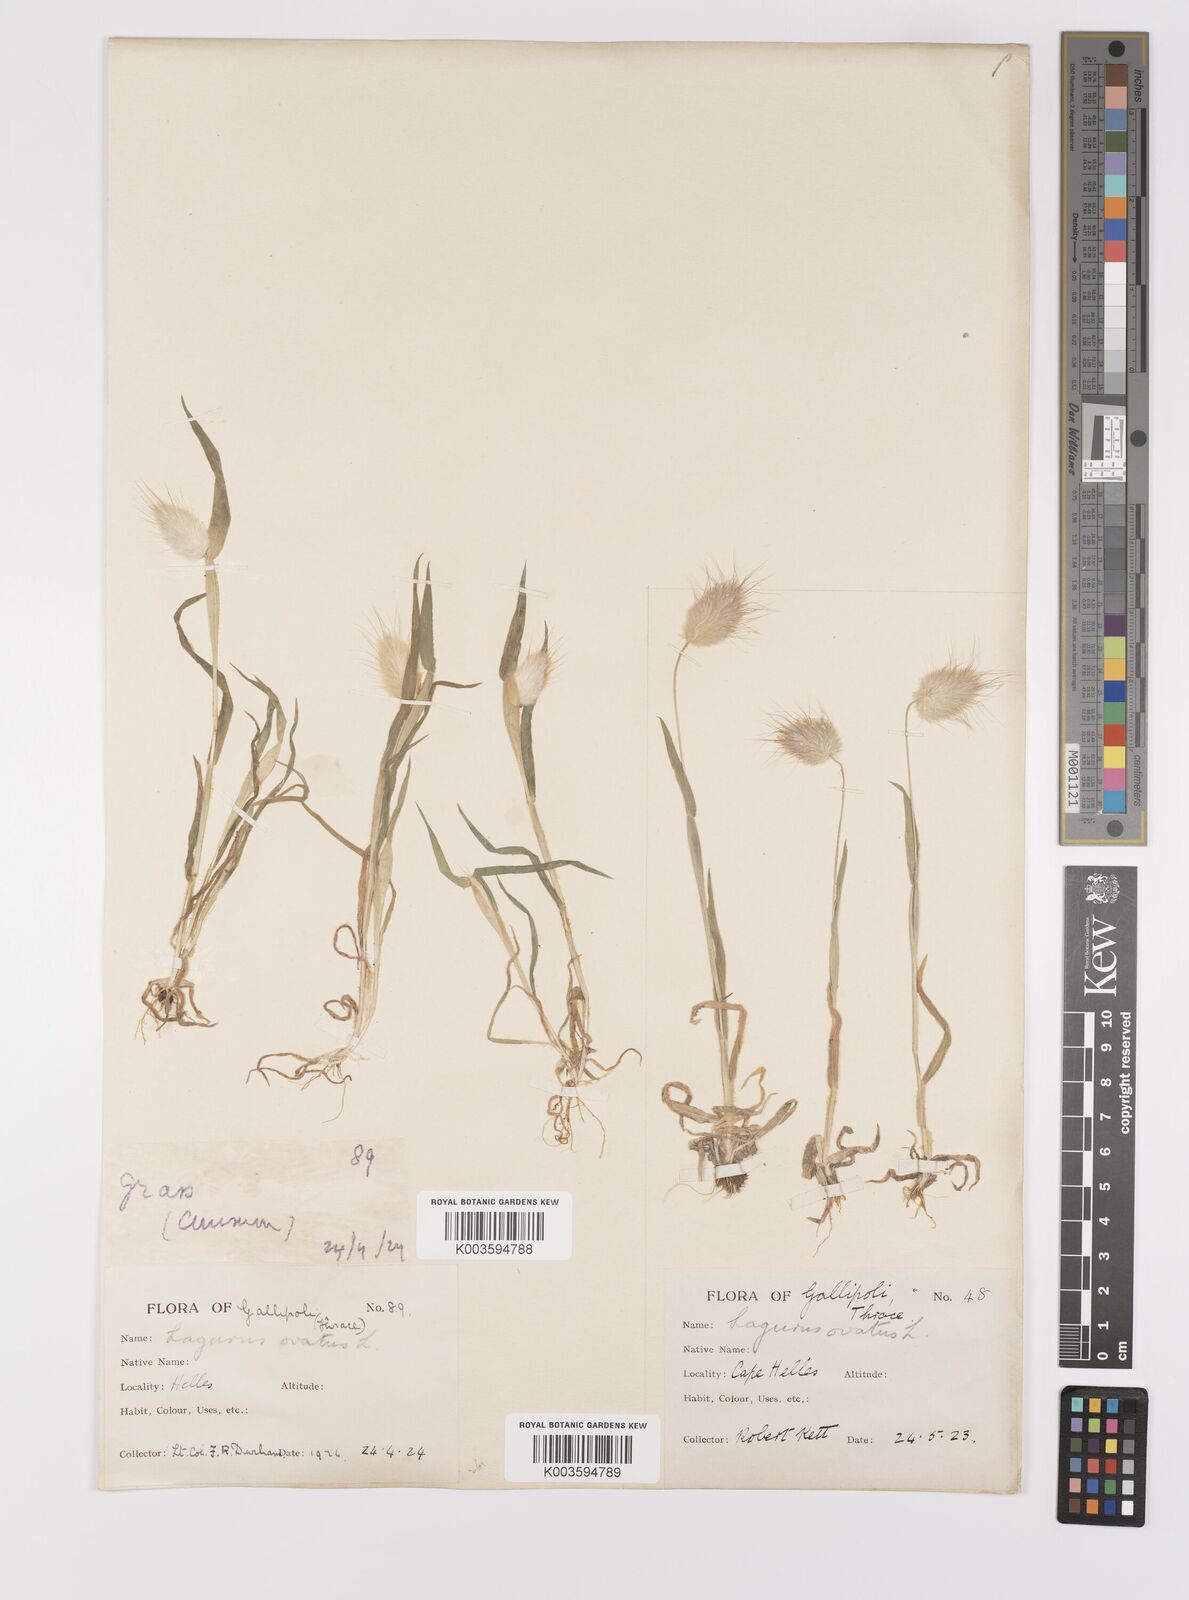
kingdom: Plantae
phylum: Tracheophyta
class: Liliopsida
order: Poales
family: Poaceae
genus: Lagurus
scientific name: Lagurus ovatus
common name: Hare's-tail
